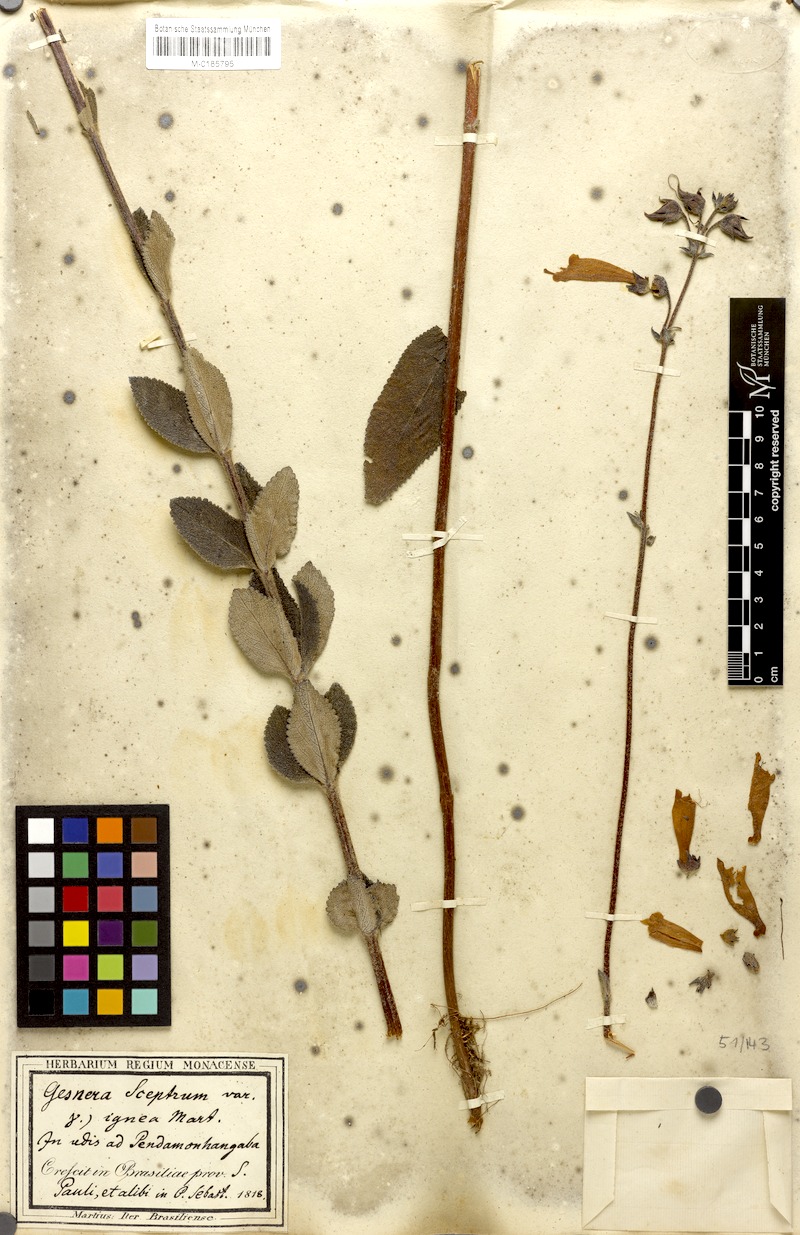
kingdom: Plantae
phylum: Tracheophyta
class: Magnoliopsida
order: Lamiales
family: Gesneriaceae
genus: Sinningia
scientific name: Sinningia elatior
